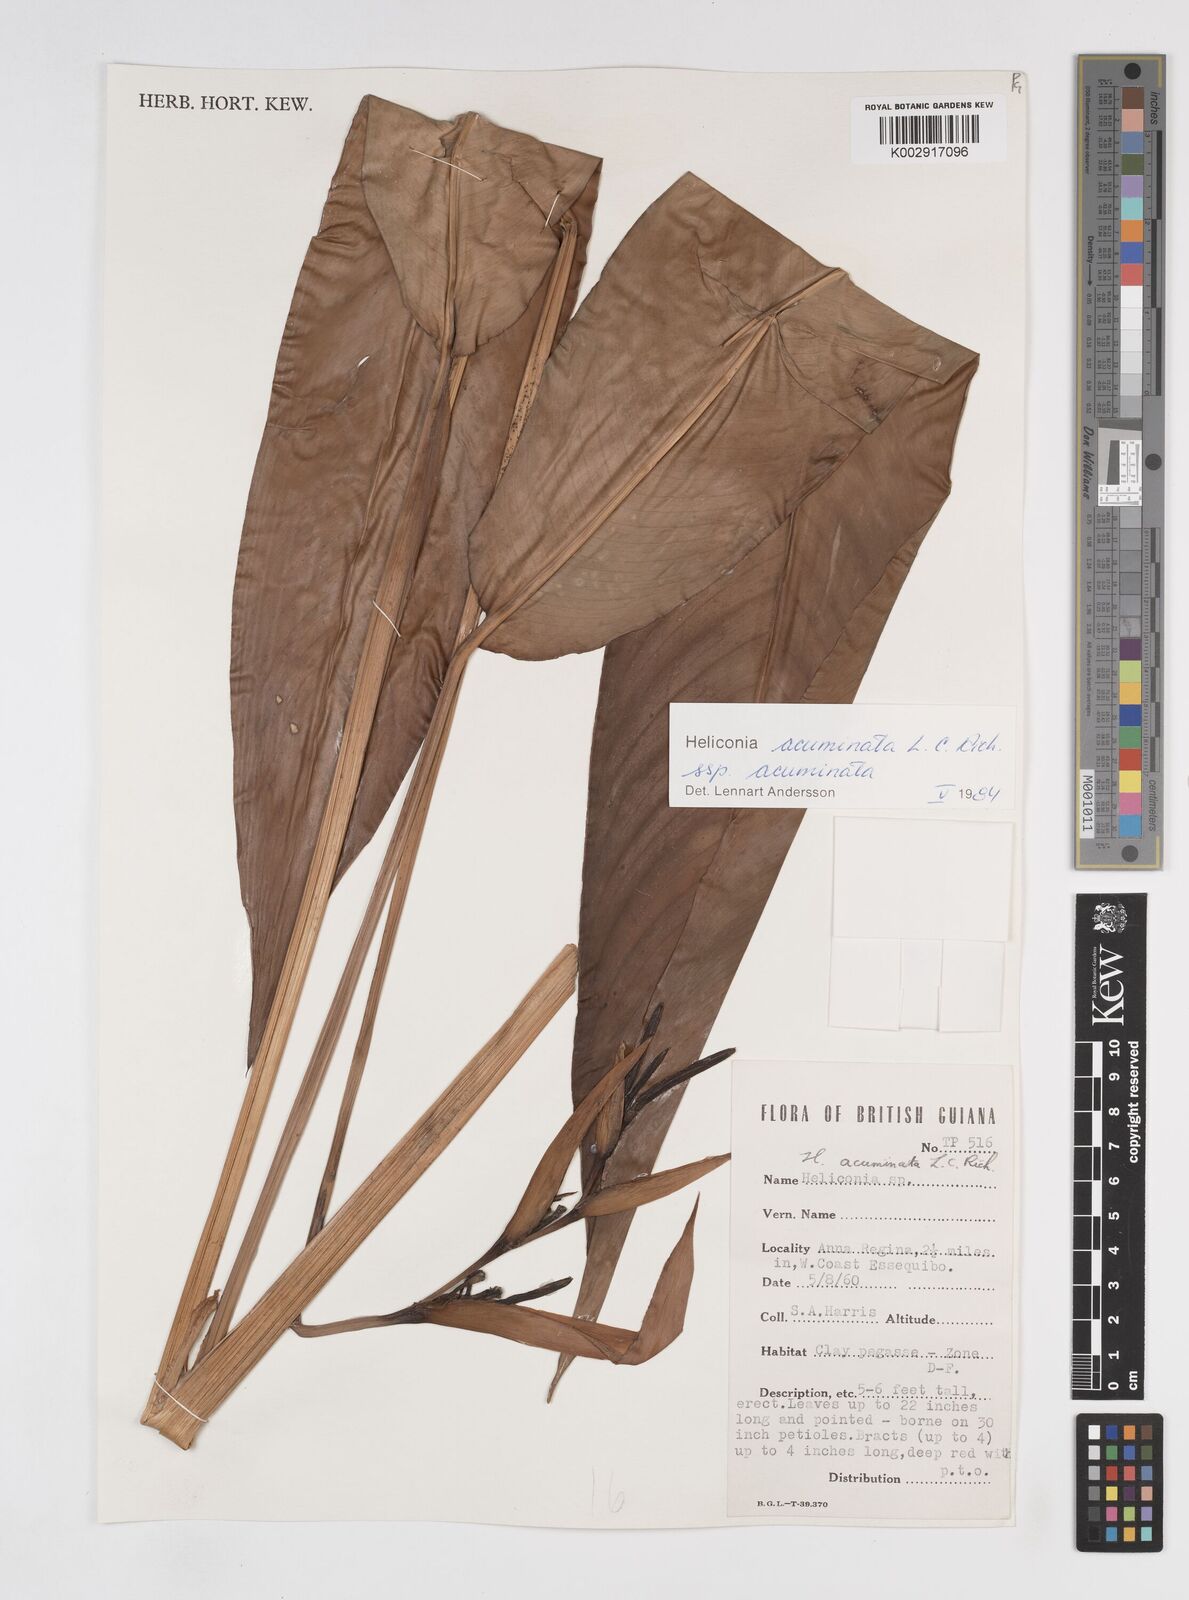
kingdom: Plantae
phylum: Tracheophyta
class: Liliopsida
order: Zingiberales
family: Heliconiaceae
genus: Heliconia
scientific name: Heliconia acuminata
